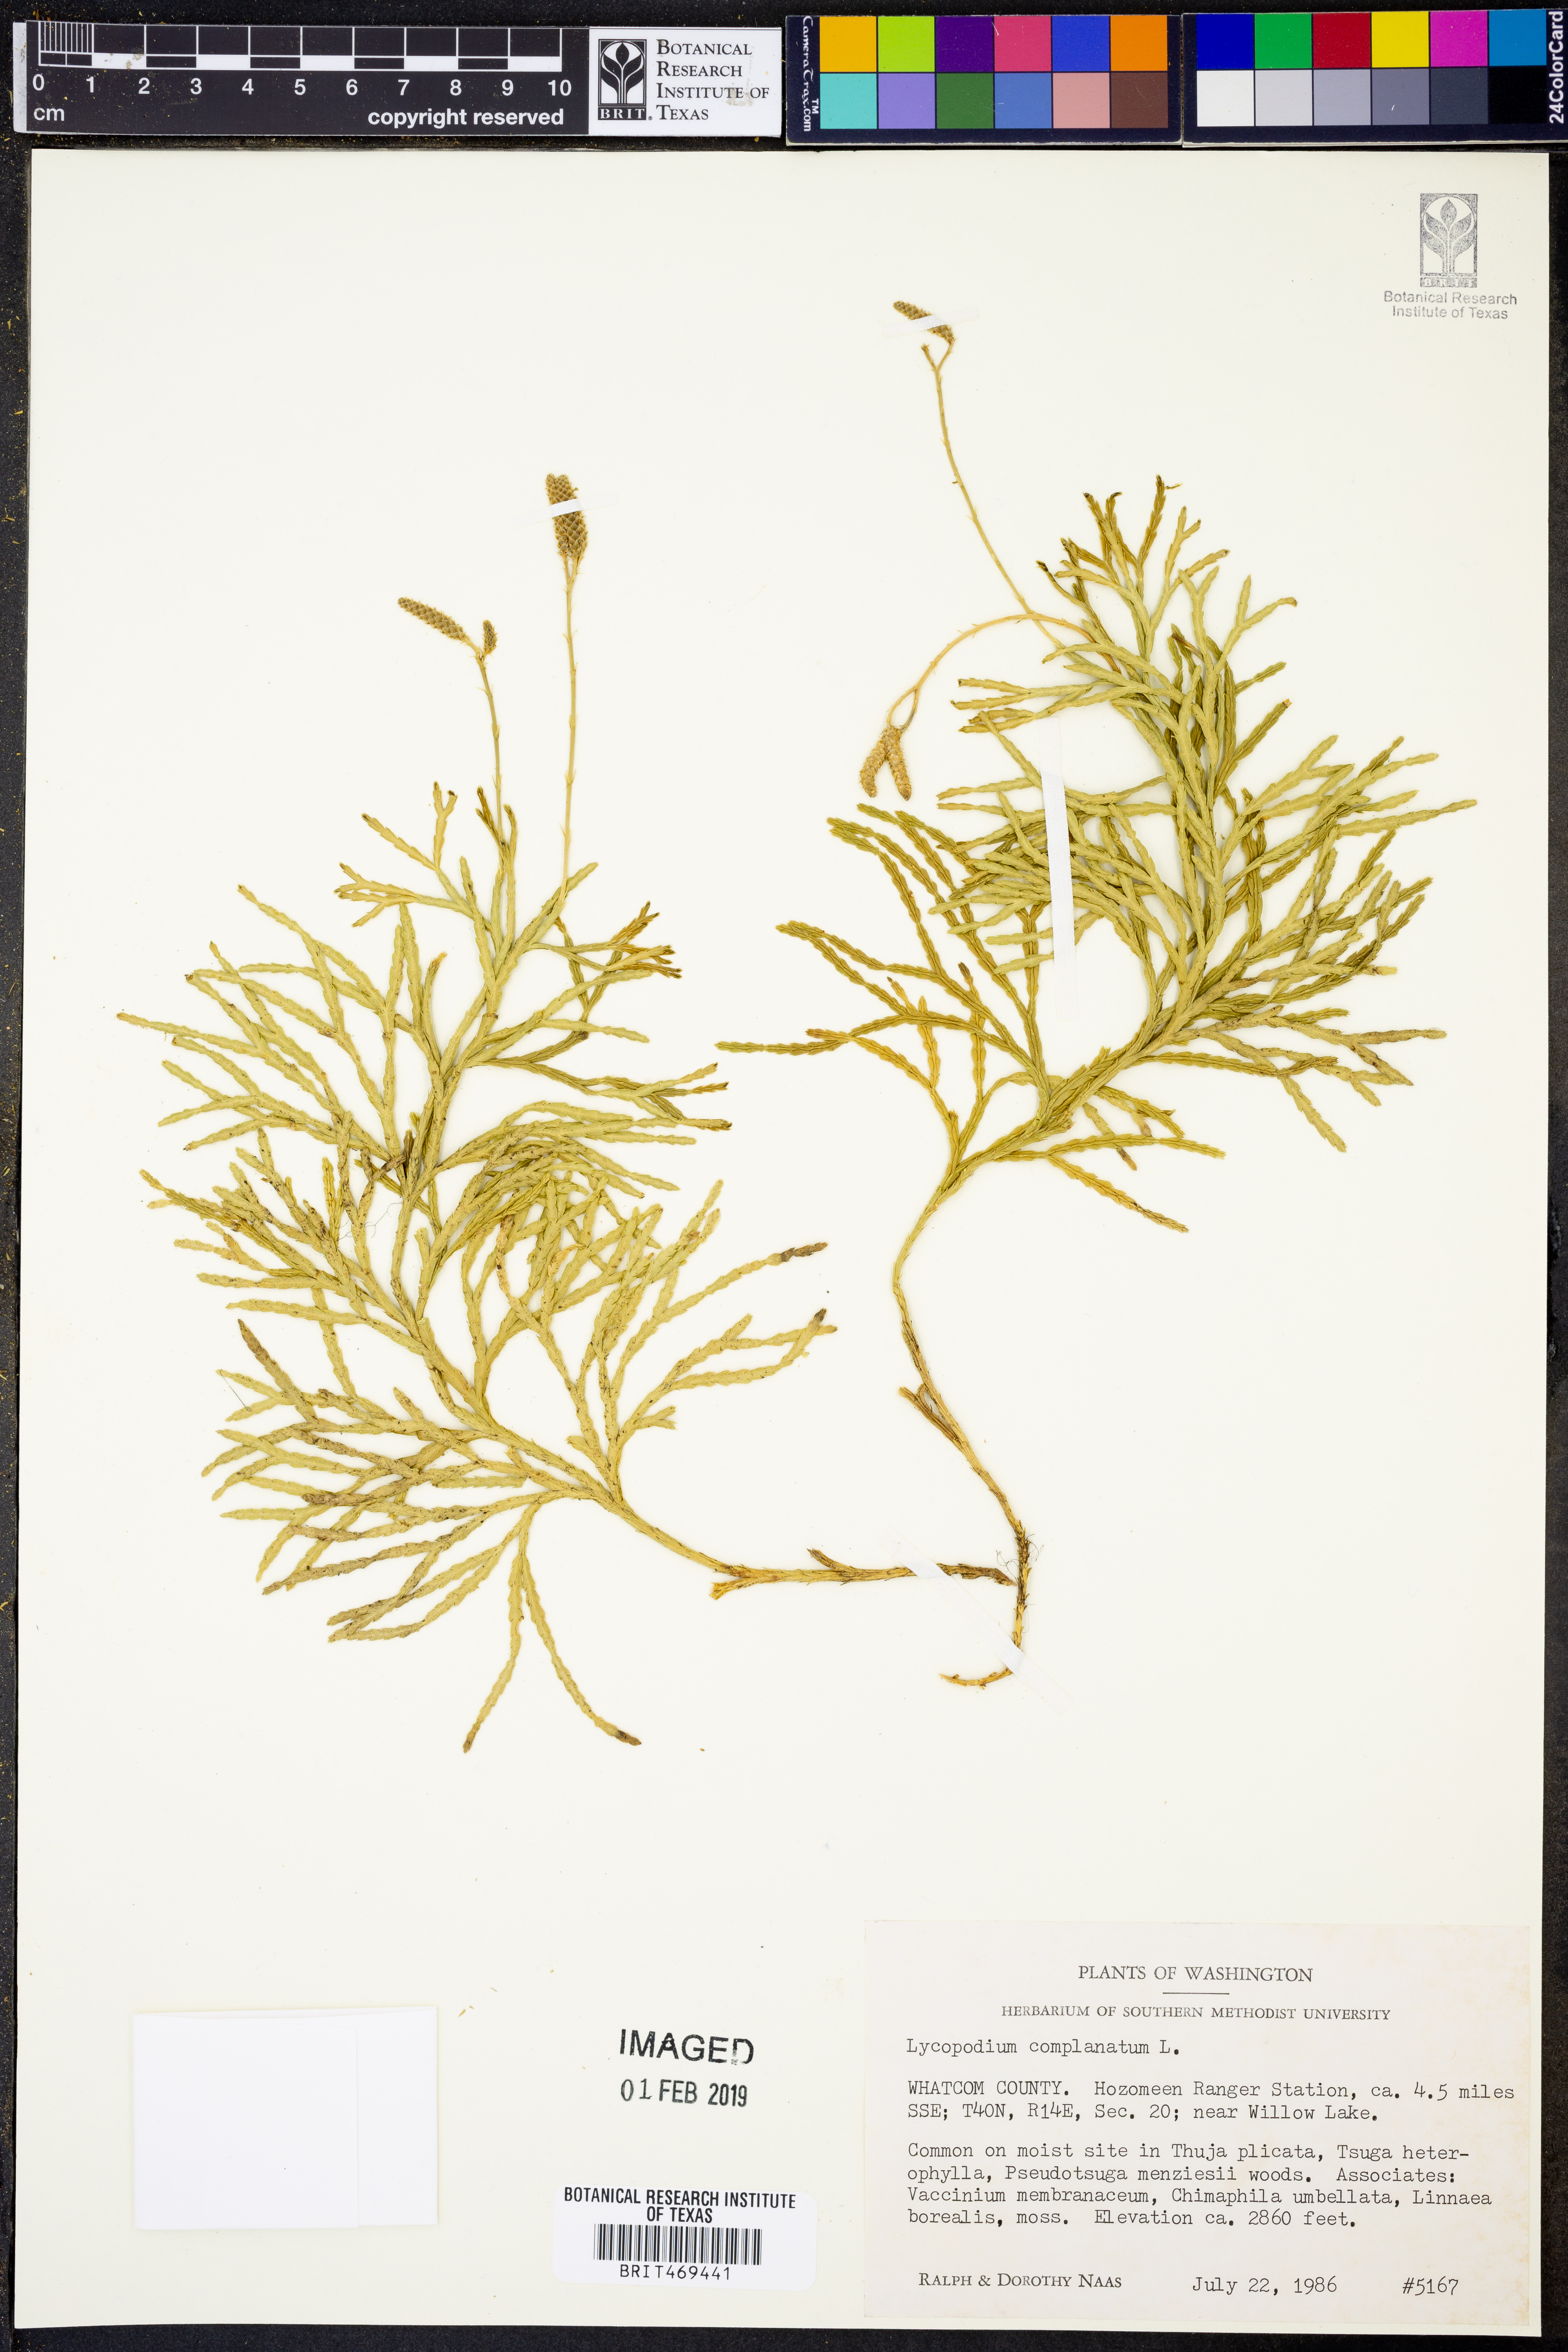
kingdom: Plantae
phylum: Tracheophyta
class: Lycopodiopsida
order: Lycopodiales
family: Lycopodiaceae
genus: Diphasiastrum
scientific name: Diphasiastrum complanatum
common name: Northern running-pine
